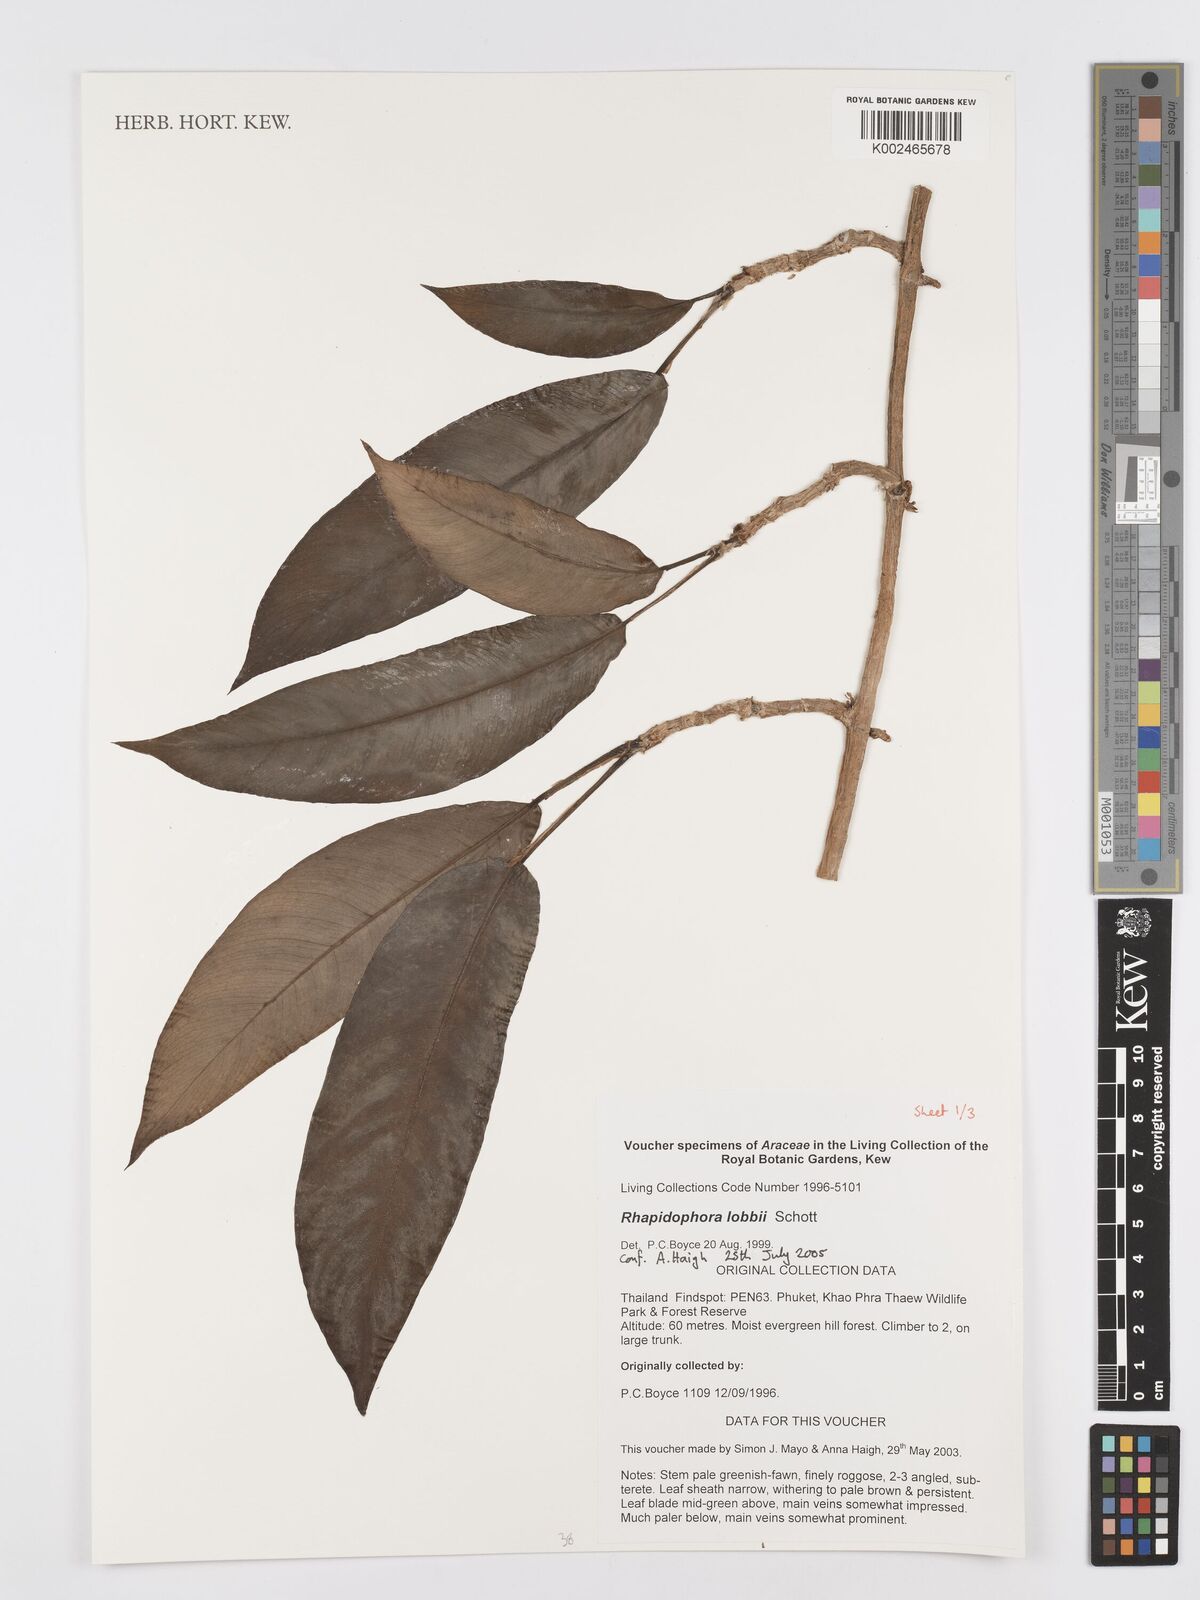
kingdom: Plantae
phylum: Tracheophyta
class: Liliopsida
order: Alismatales
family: Araceae
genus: Rhaphidophora
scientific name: Rhaphidophora lobbii
